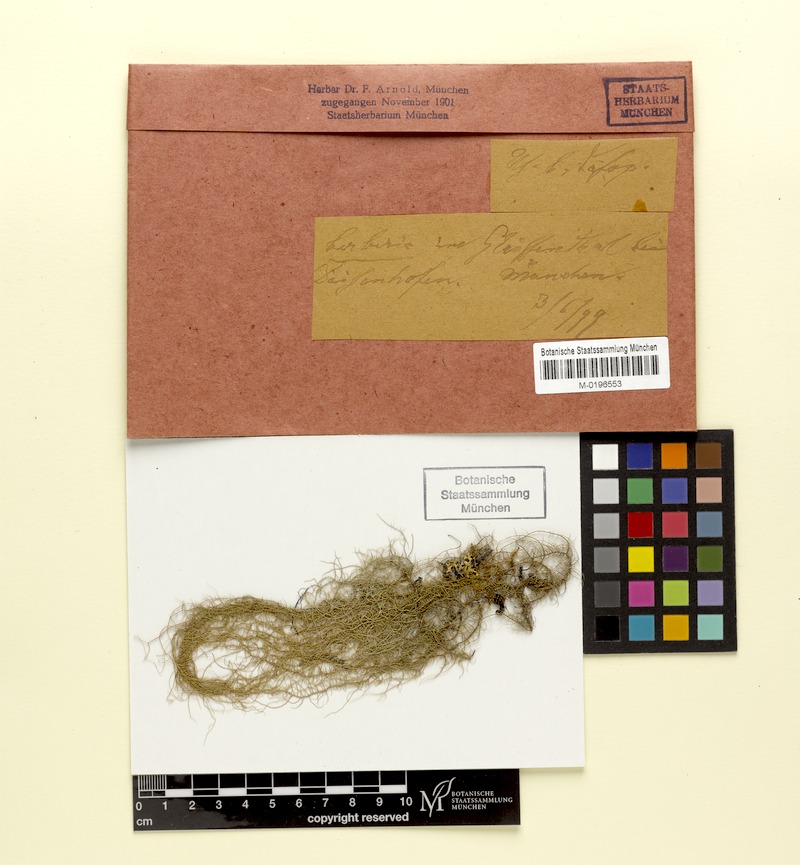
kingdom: Fungi
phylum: Ascomycota
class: Lecanoromycetes
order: Lecanorales
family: Parmeliaceae
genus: Usnea
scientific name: Usnea dasopoga
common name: Fishbone beard lichen
